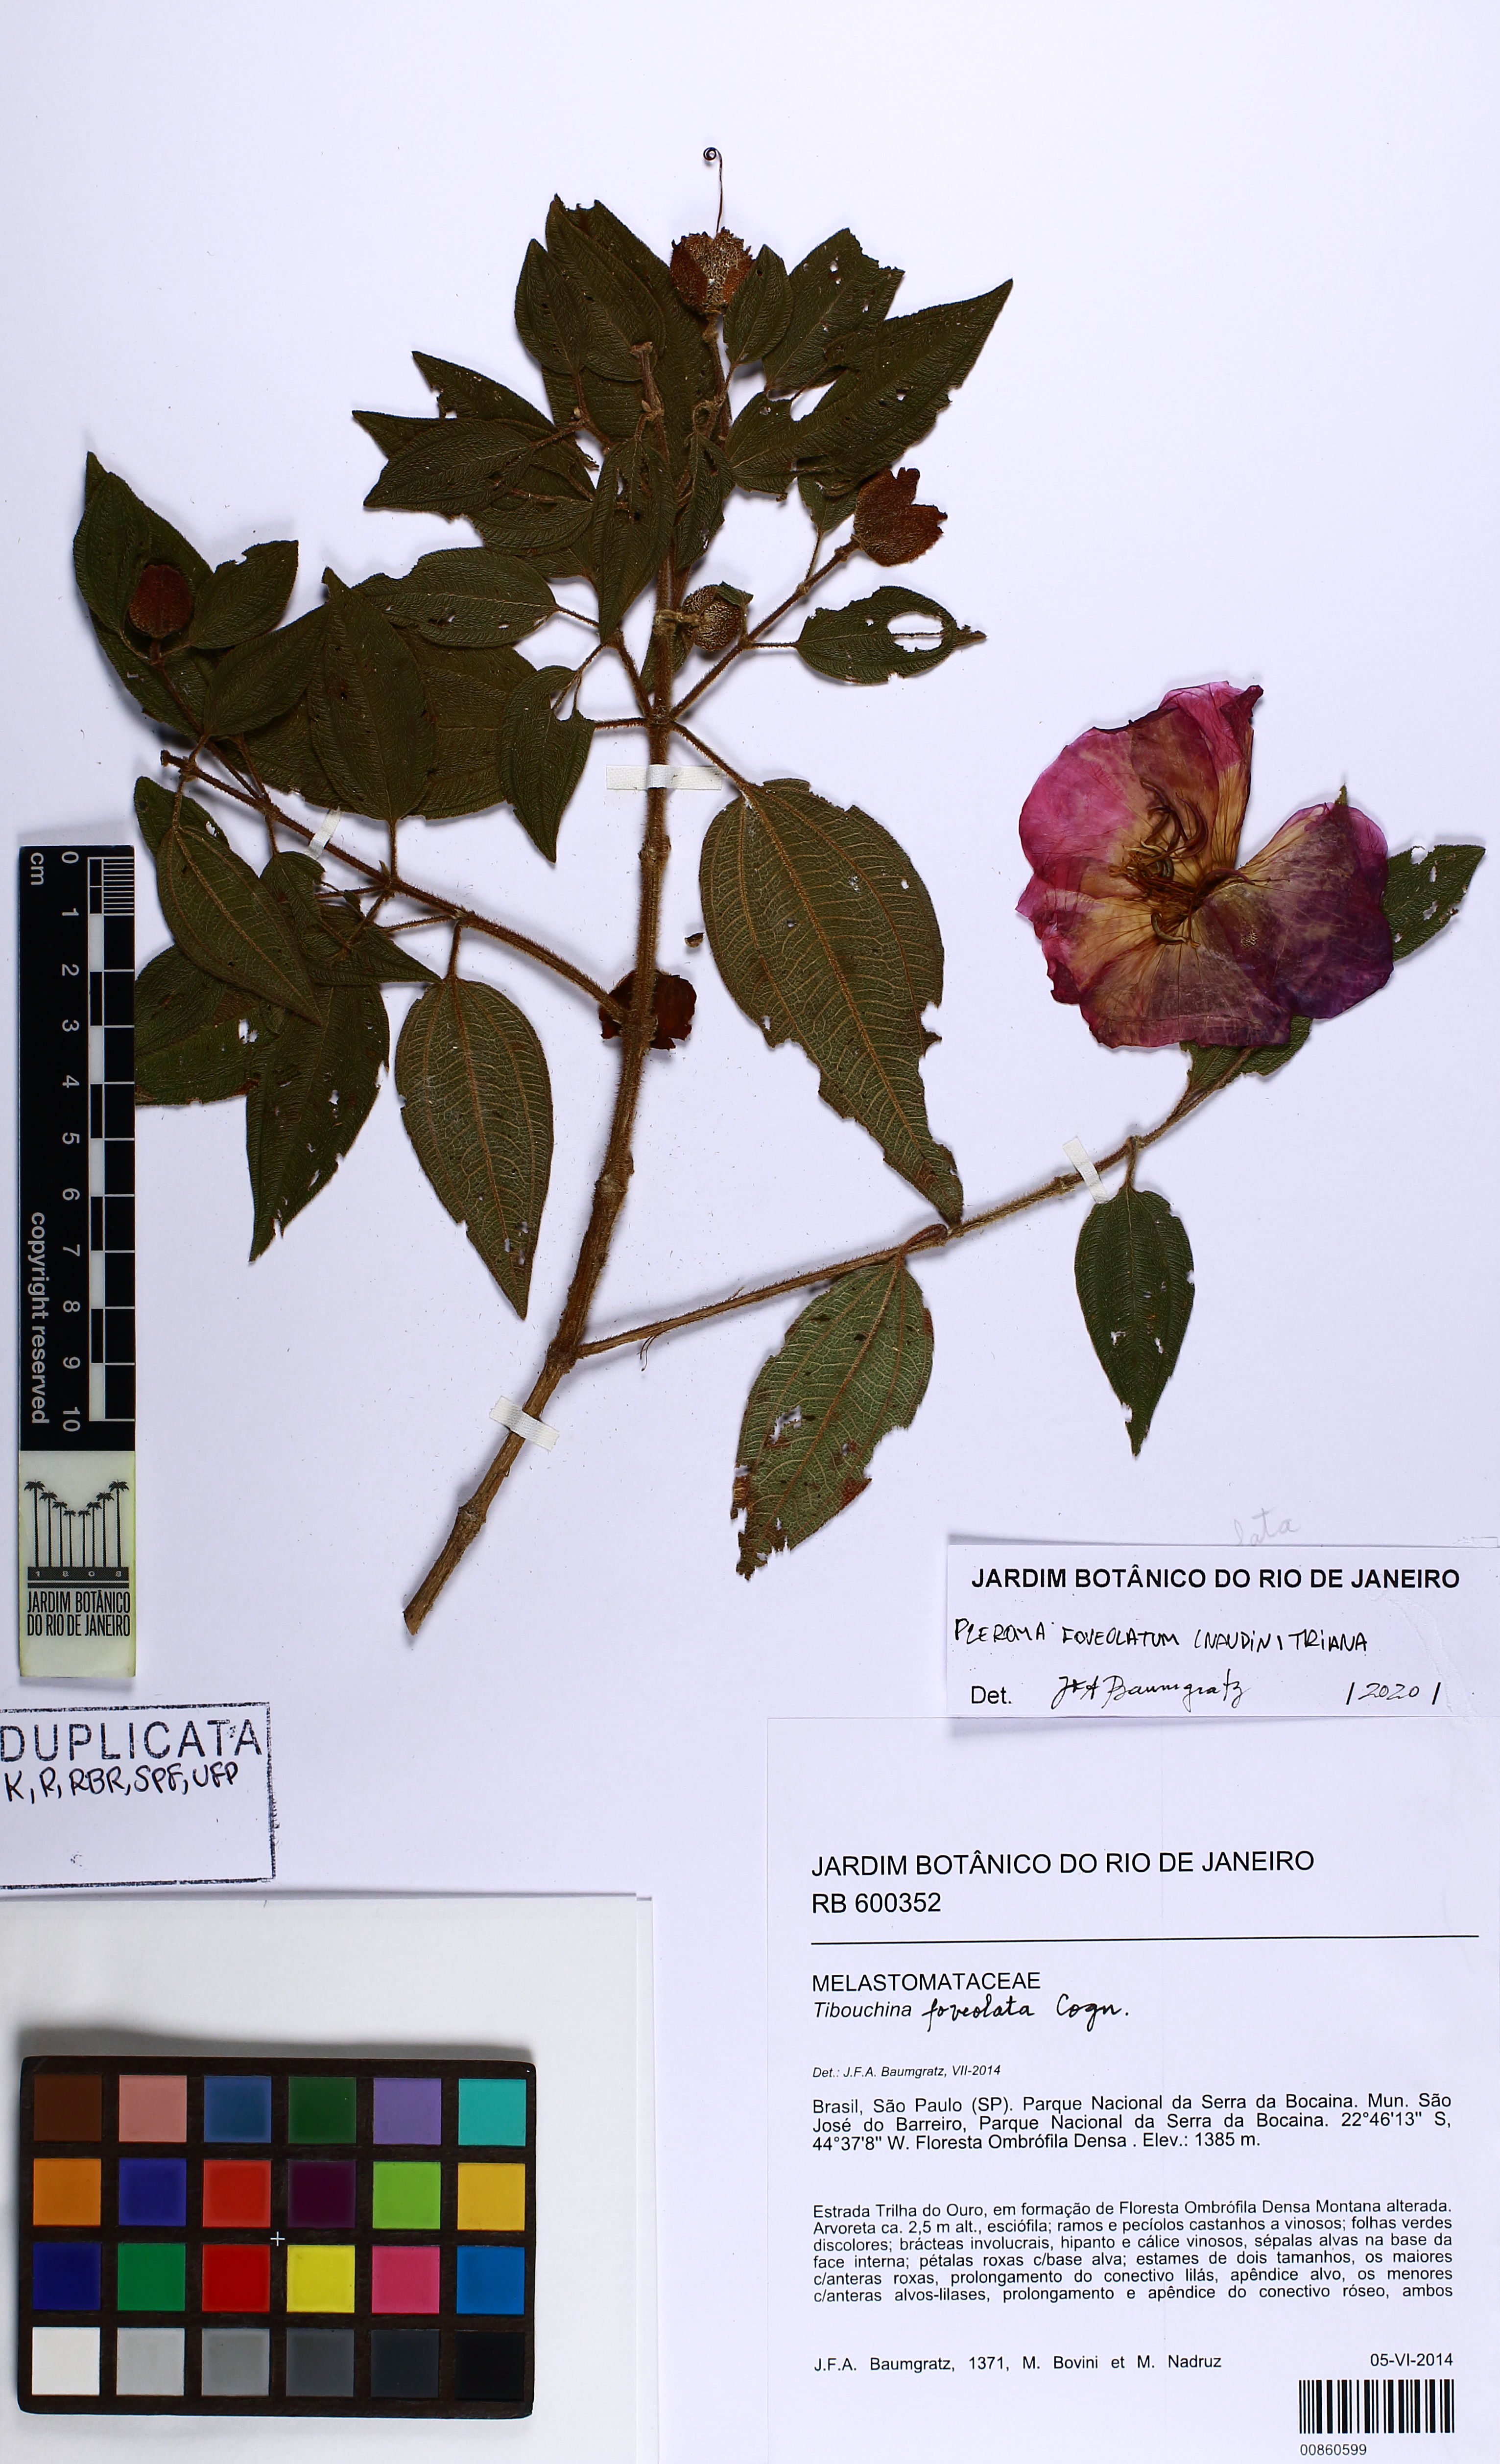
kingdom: Plantae
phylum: Tracheophyta
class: Magnoliopsida
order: Myrtales
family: Melastomataceae
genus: Pleroma
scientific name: Pleroma foveolatum
